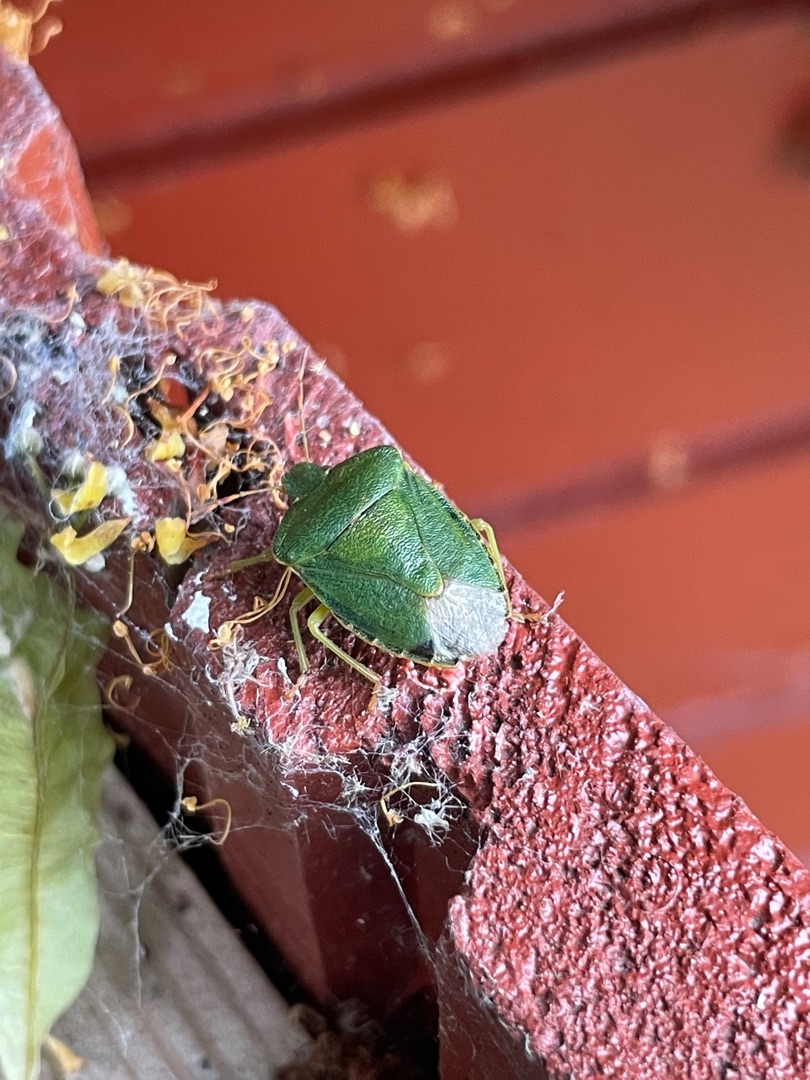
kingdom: Animalia
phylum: Arthropoda
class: Insecta
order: Hemiptera
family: Pentatomidae
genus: Palomena
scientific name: Palomena prasina
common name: Grøn bredtæge
